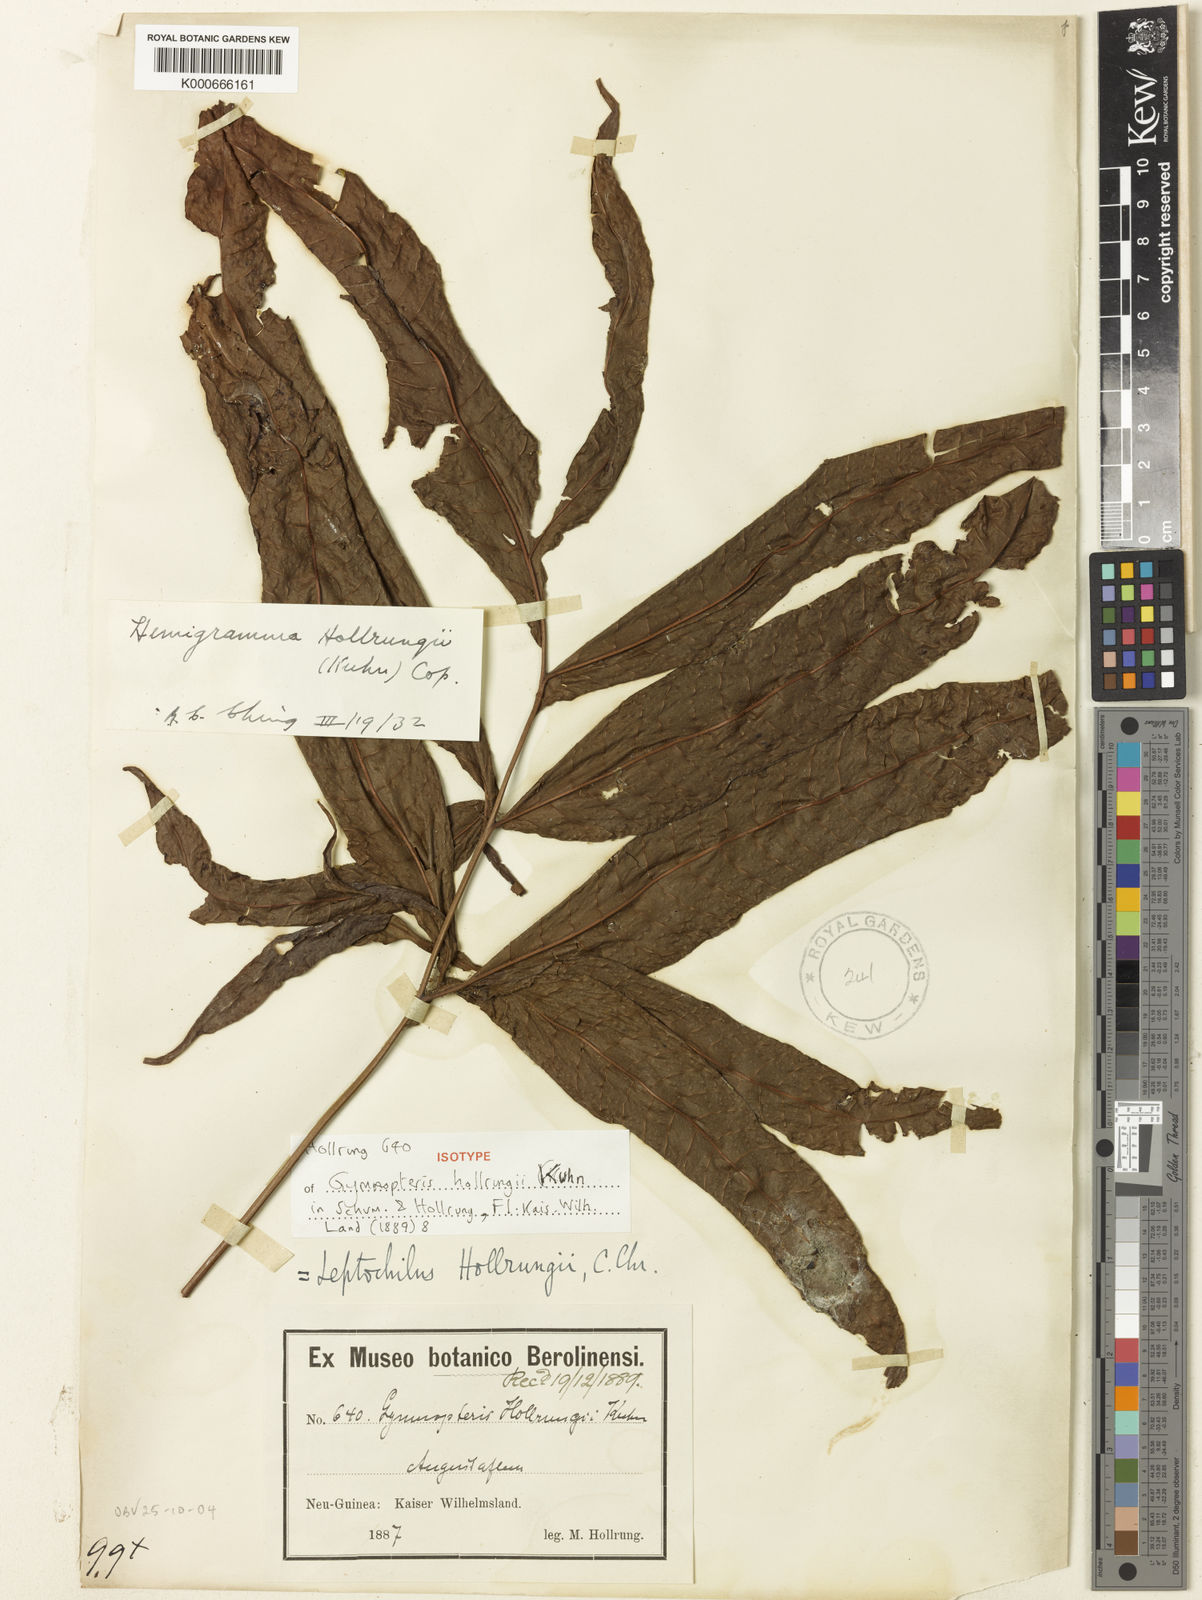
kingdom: Plantae
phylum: Tracheophyta
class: Polypodiopsida
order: Polypodiales
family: Tectariaceae
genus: Tectaria
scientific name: Tectaria hollrungii
